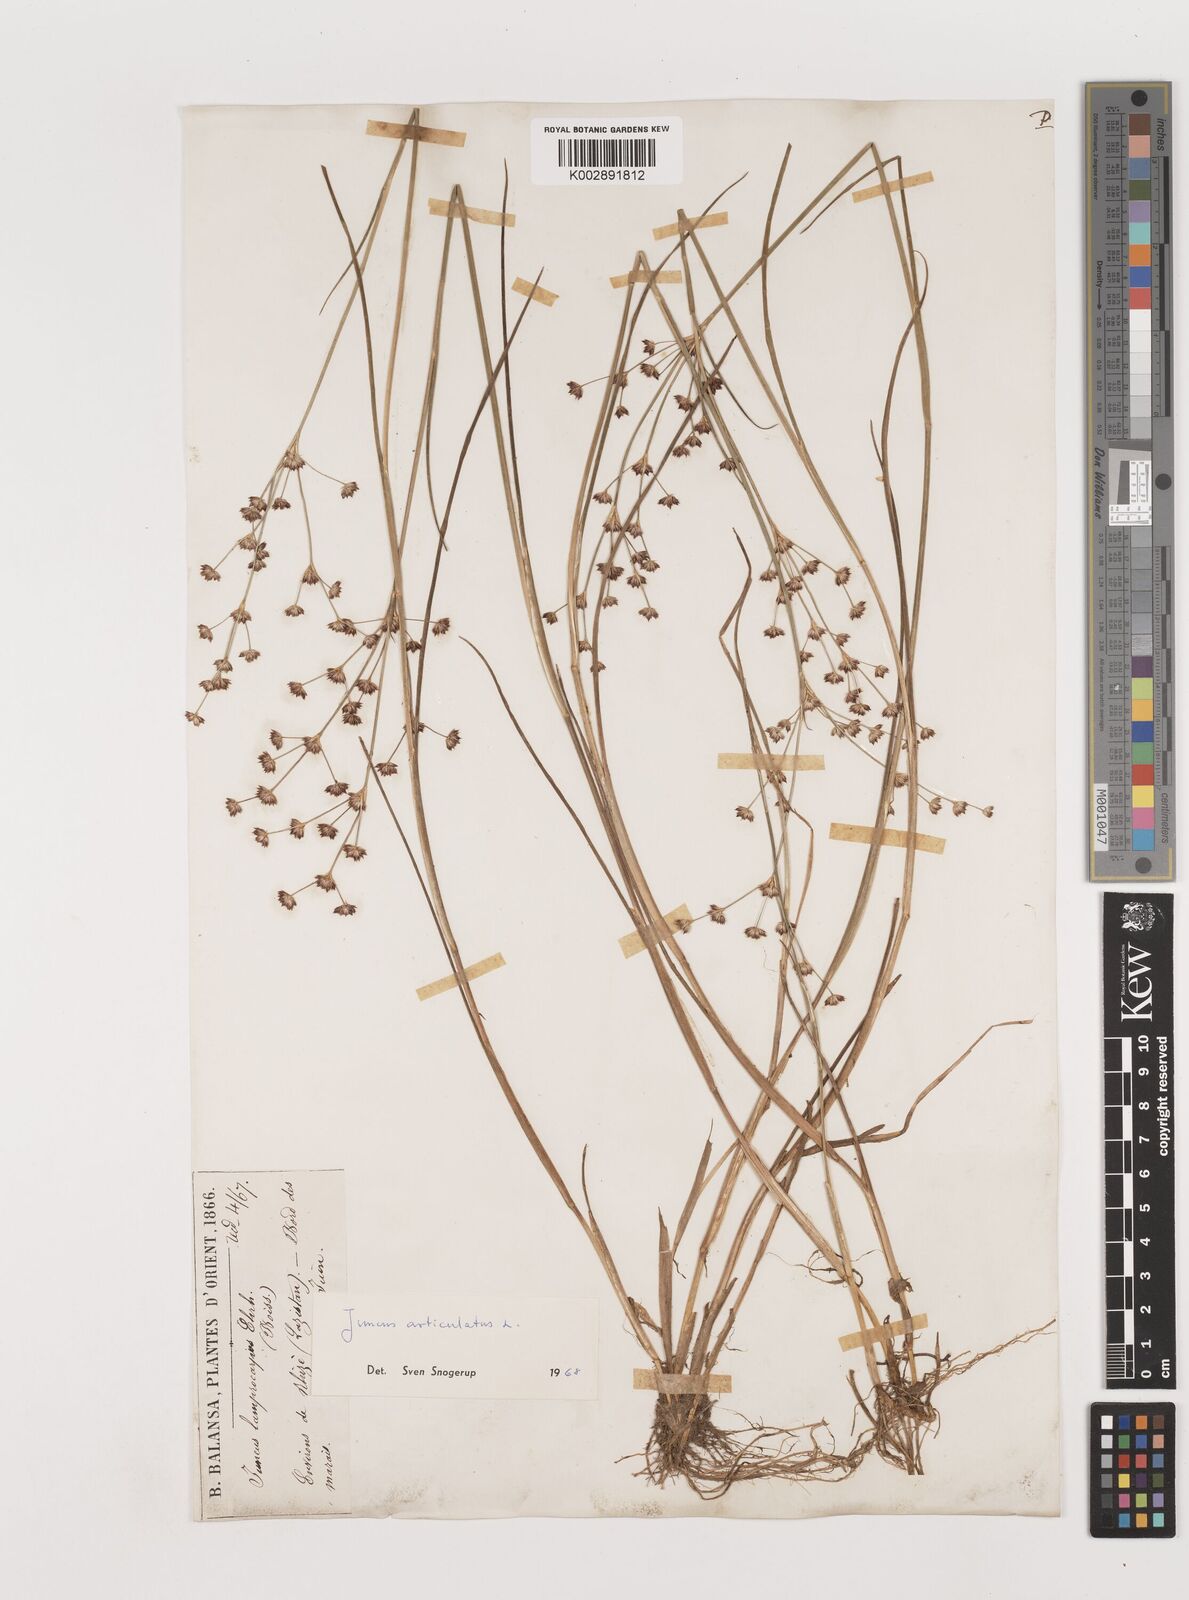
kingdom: Plantae
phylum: Tracheophyta
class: Liliopsida
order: Poales
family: Juncaceae
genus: Juncus
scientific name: Juncus articulatus
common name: Jointed rush
